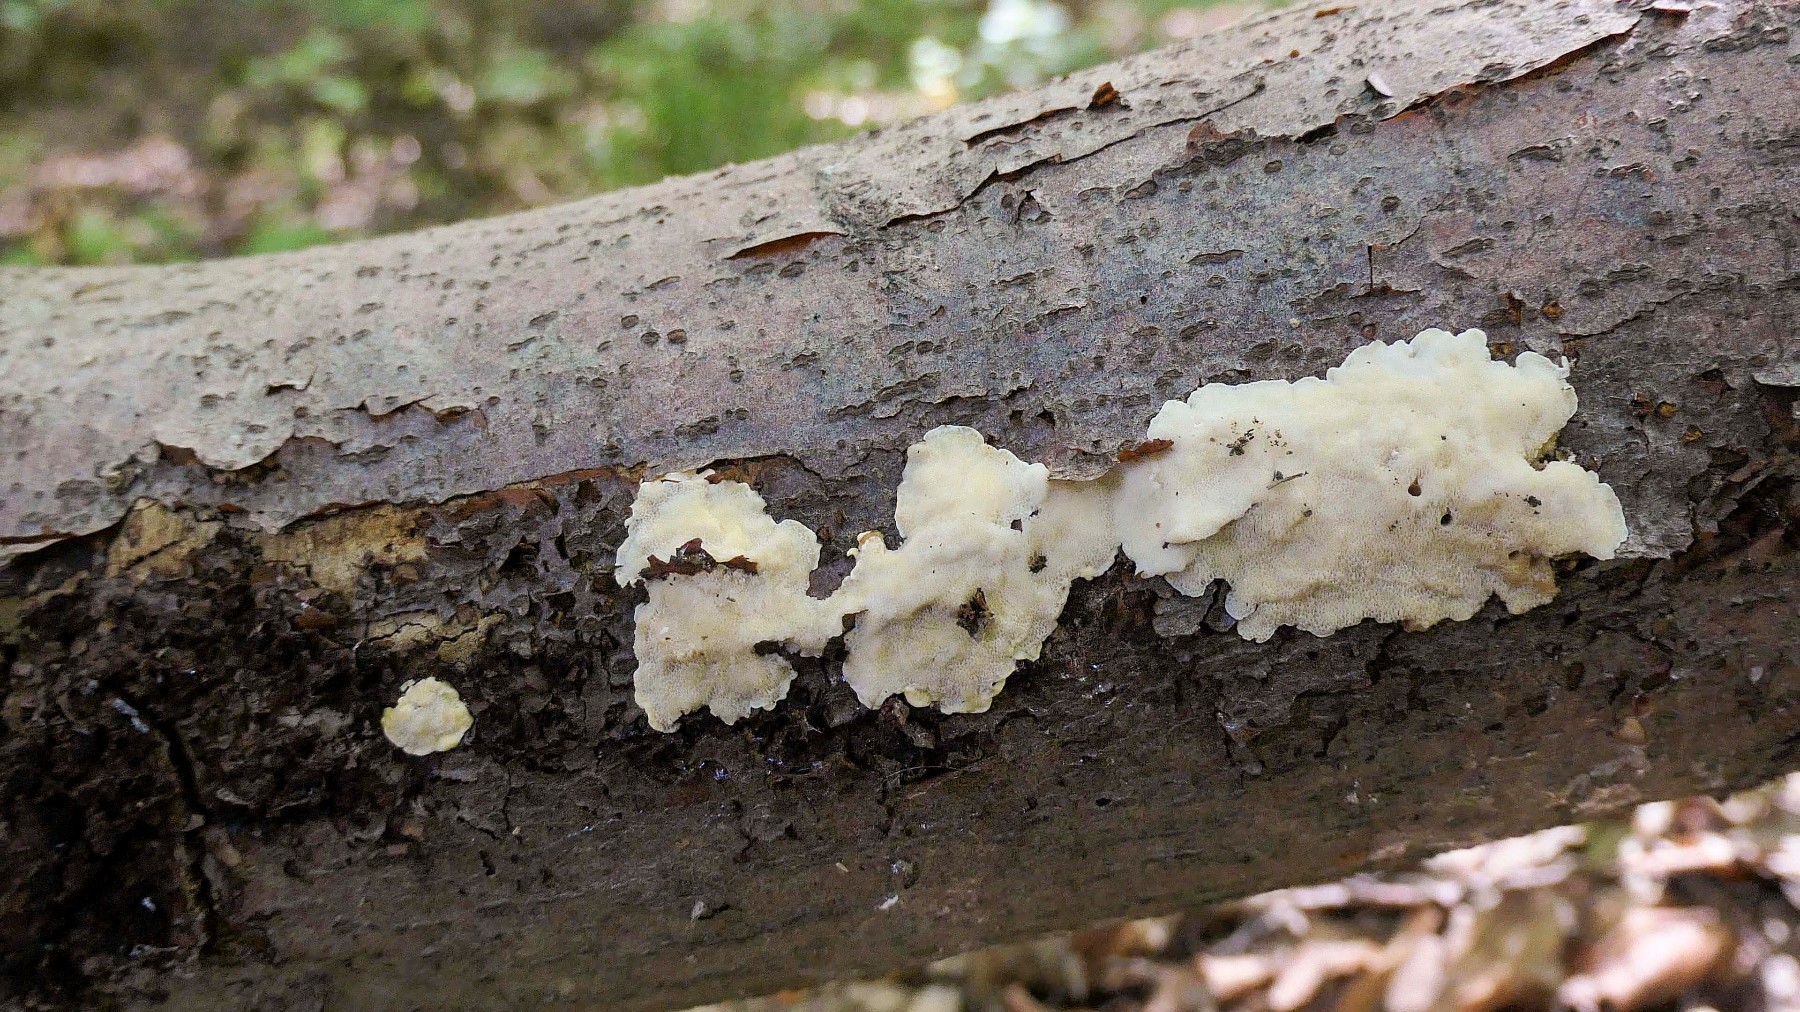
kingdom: Fungi
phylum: Basidiomycota
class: Agaricomycetes
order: Polyporales
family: Steccherinaceae
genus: Antrodiella
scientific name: Antrodiella serpula
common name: gulrandet elastikporesvamp
